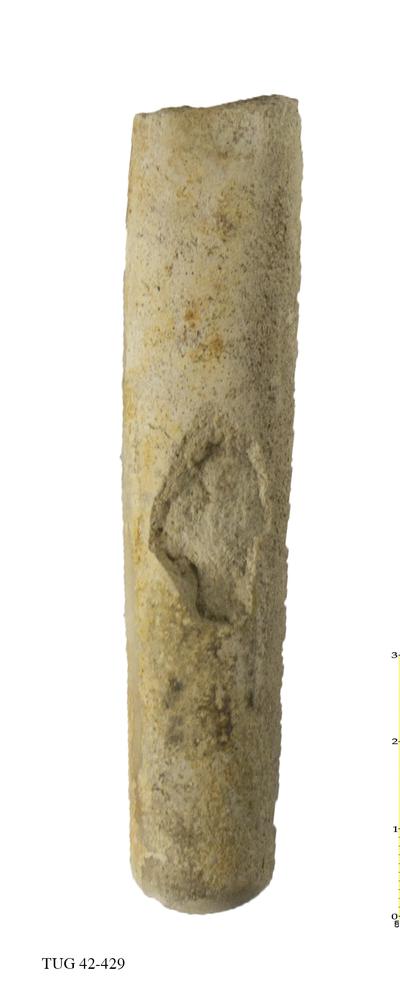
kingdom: Animalia
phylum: Mollusca
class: Cephalopoda
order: Orthocerida
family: Orthoceratidae
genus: Orthoceras
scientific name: Orthoceras regulare
